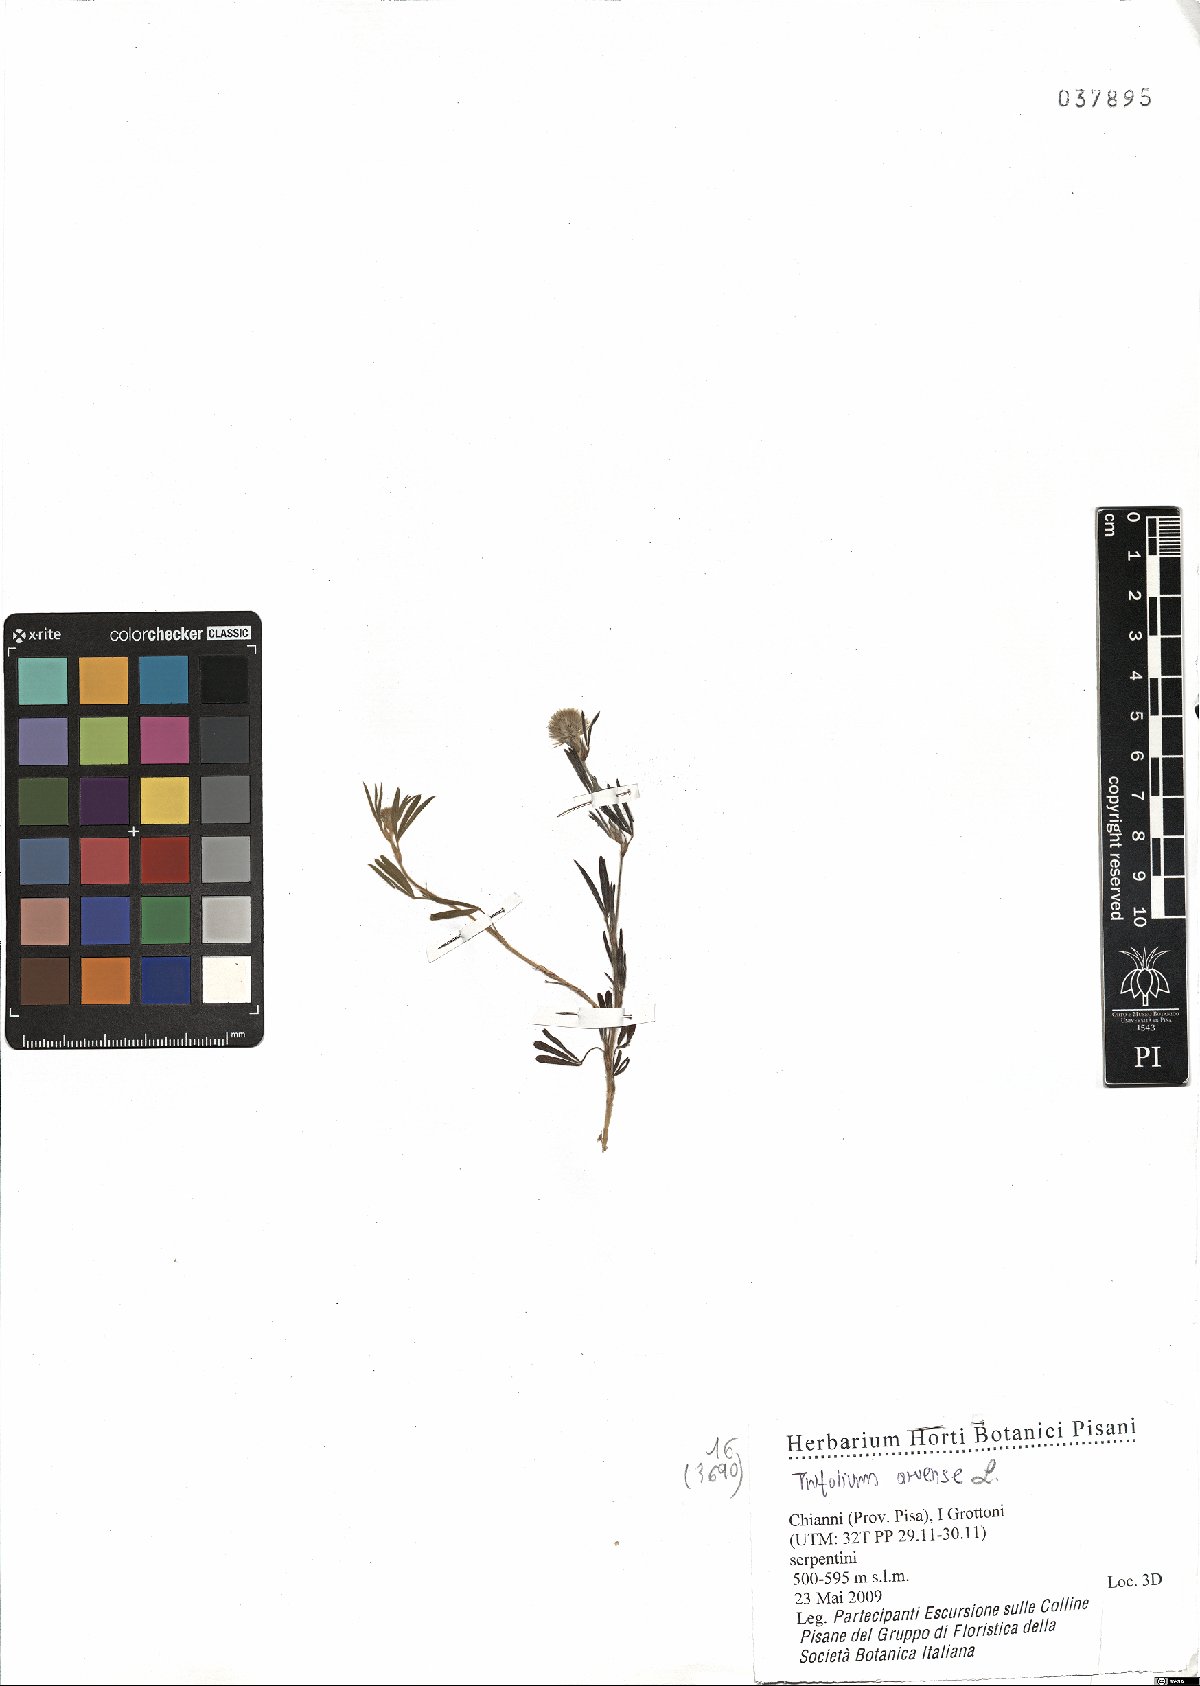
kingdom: Plantae
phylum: Tracheophyta
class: Magnoliopsida
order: Fabales
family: Fabaceae
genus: Trifolium
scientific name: Trifolium arvense
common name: Hare's-foot clover
